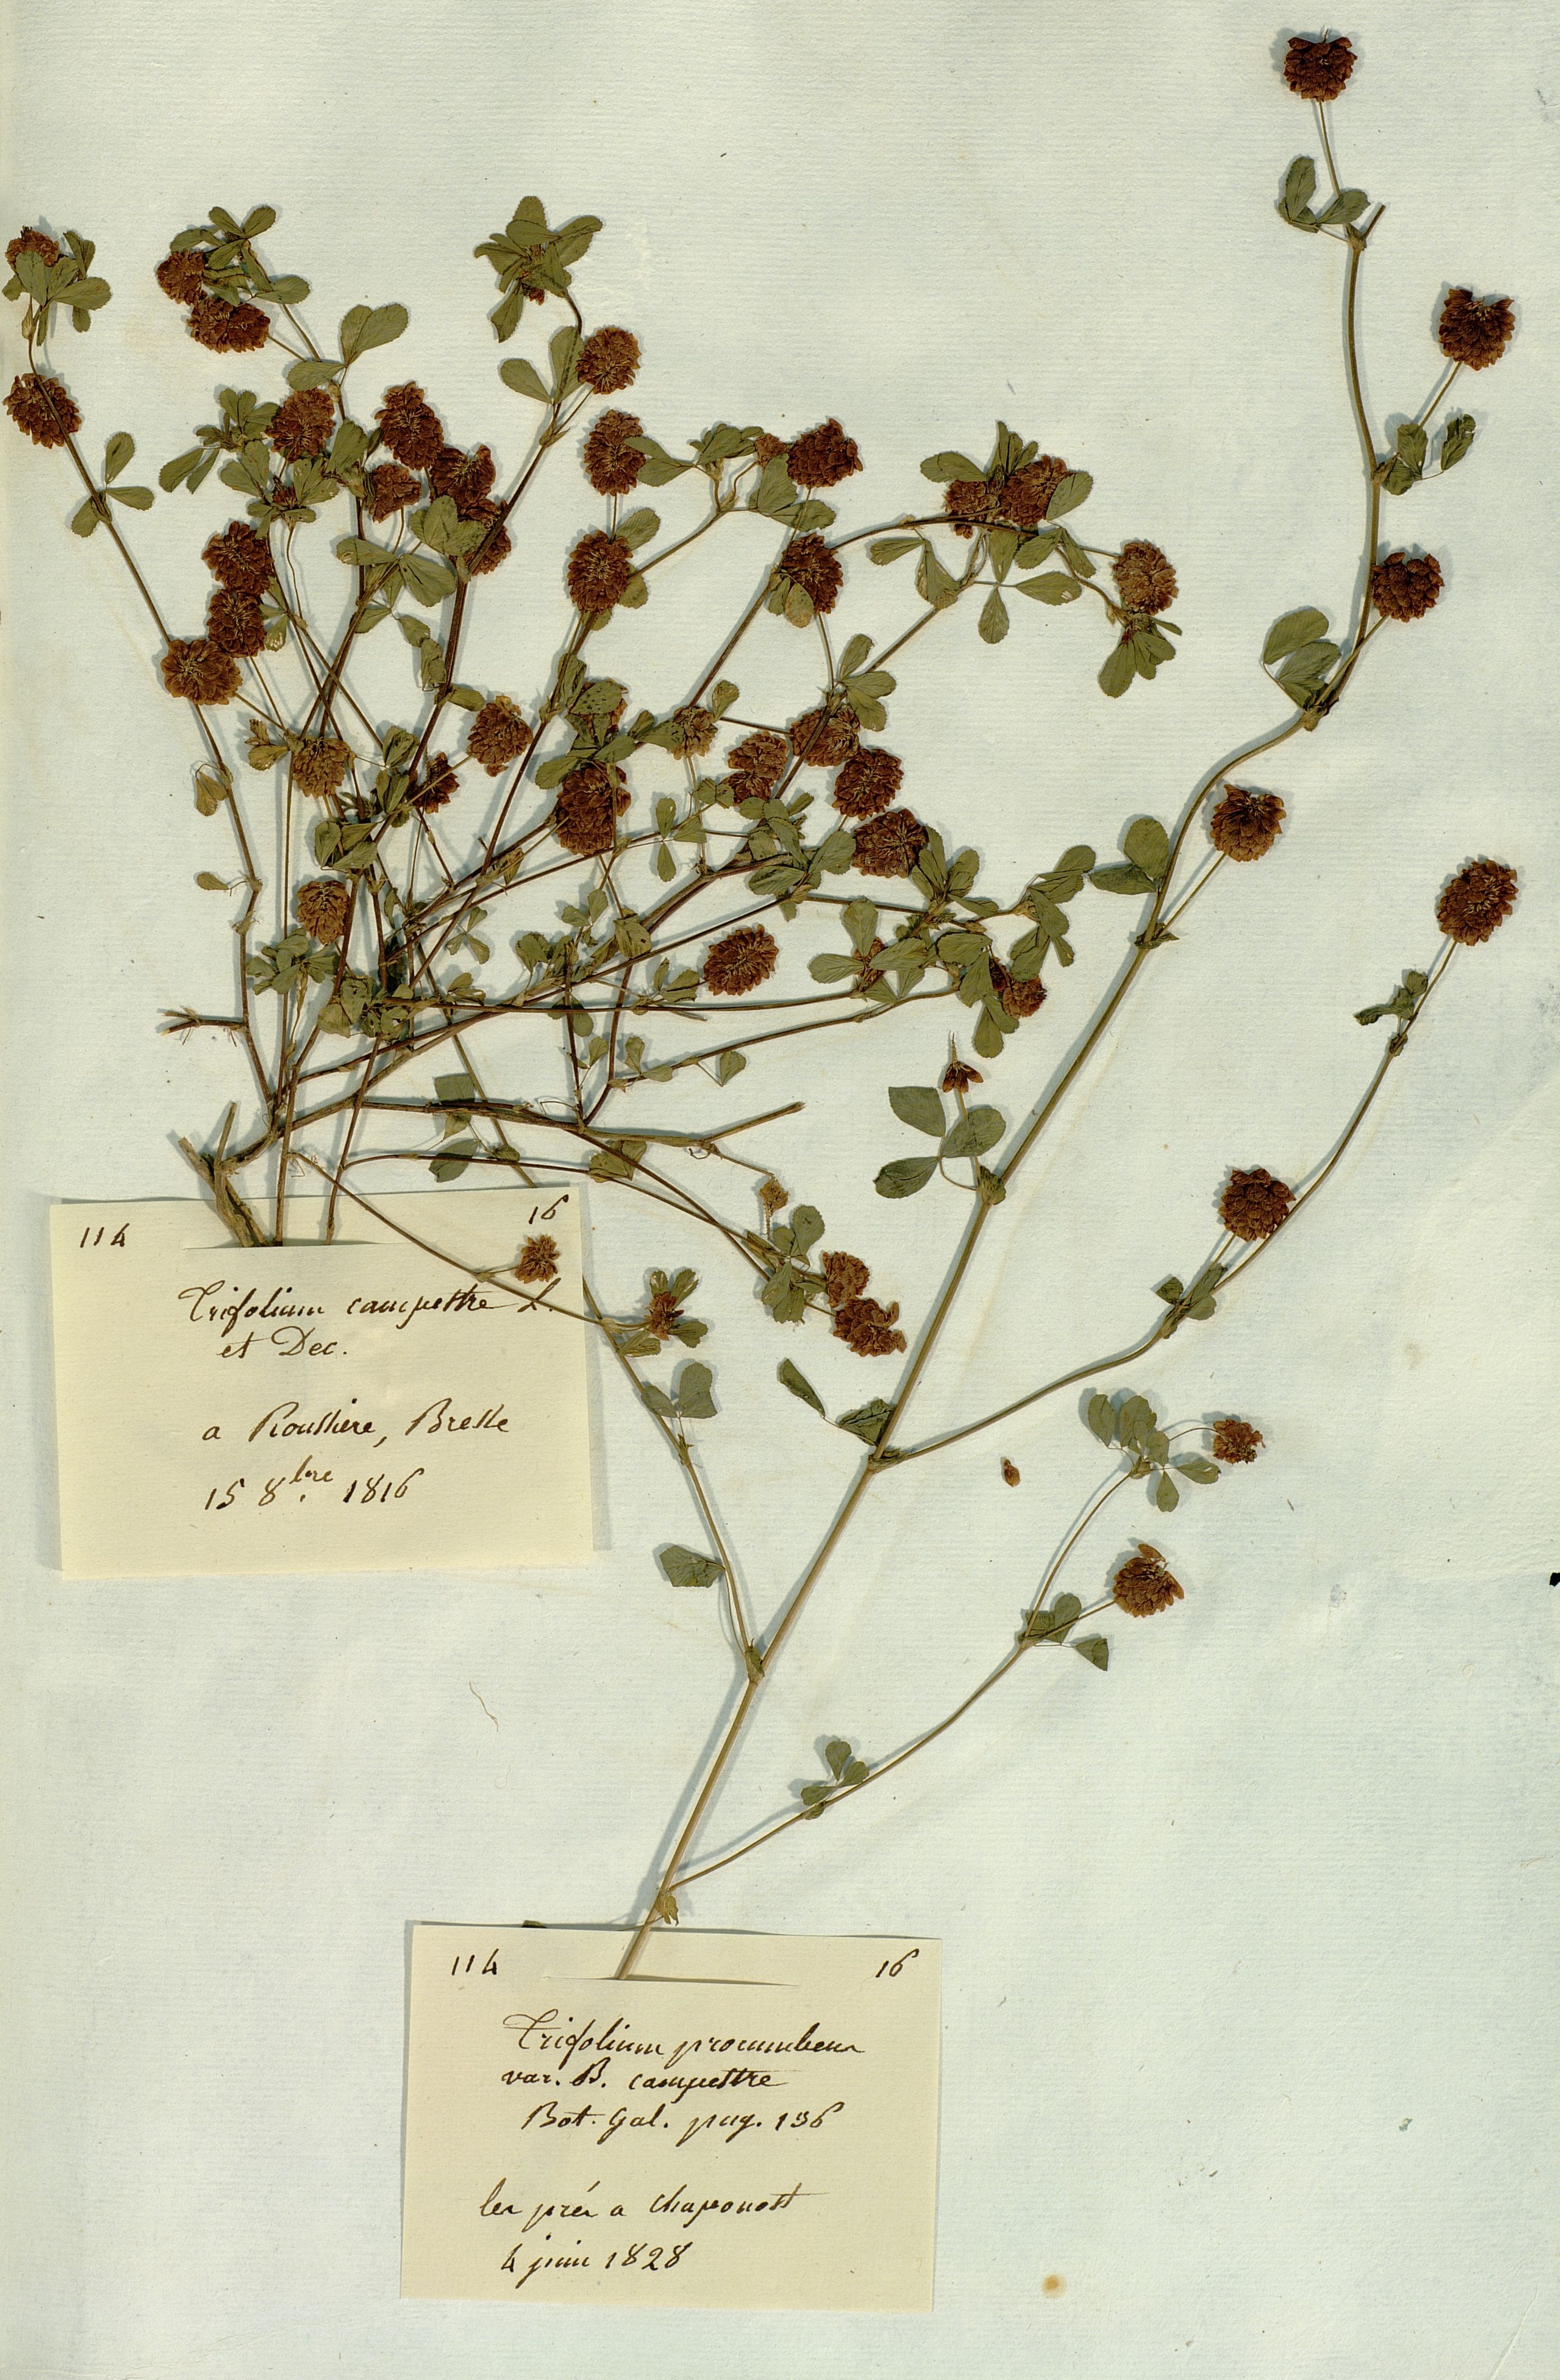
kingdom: Plantae
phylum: Tracheophyta
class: Magnoliopsida
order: Fabales
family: Fabaceae
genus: Trifolium
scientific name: Trifolium
